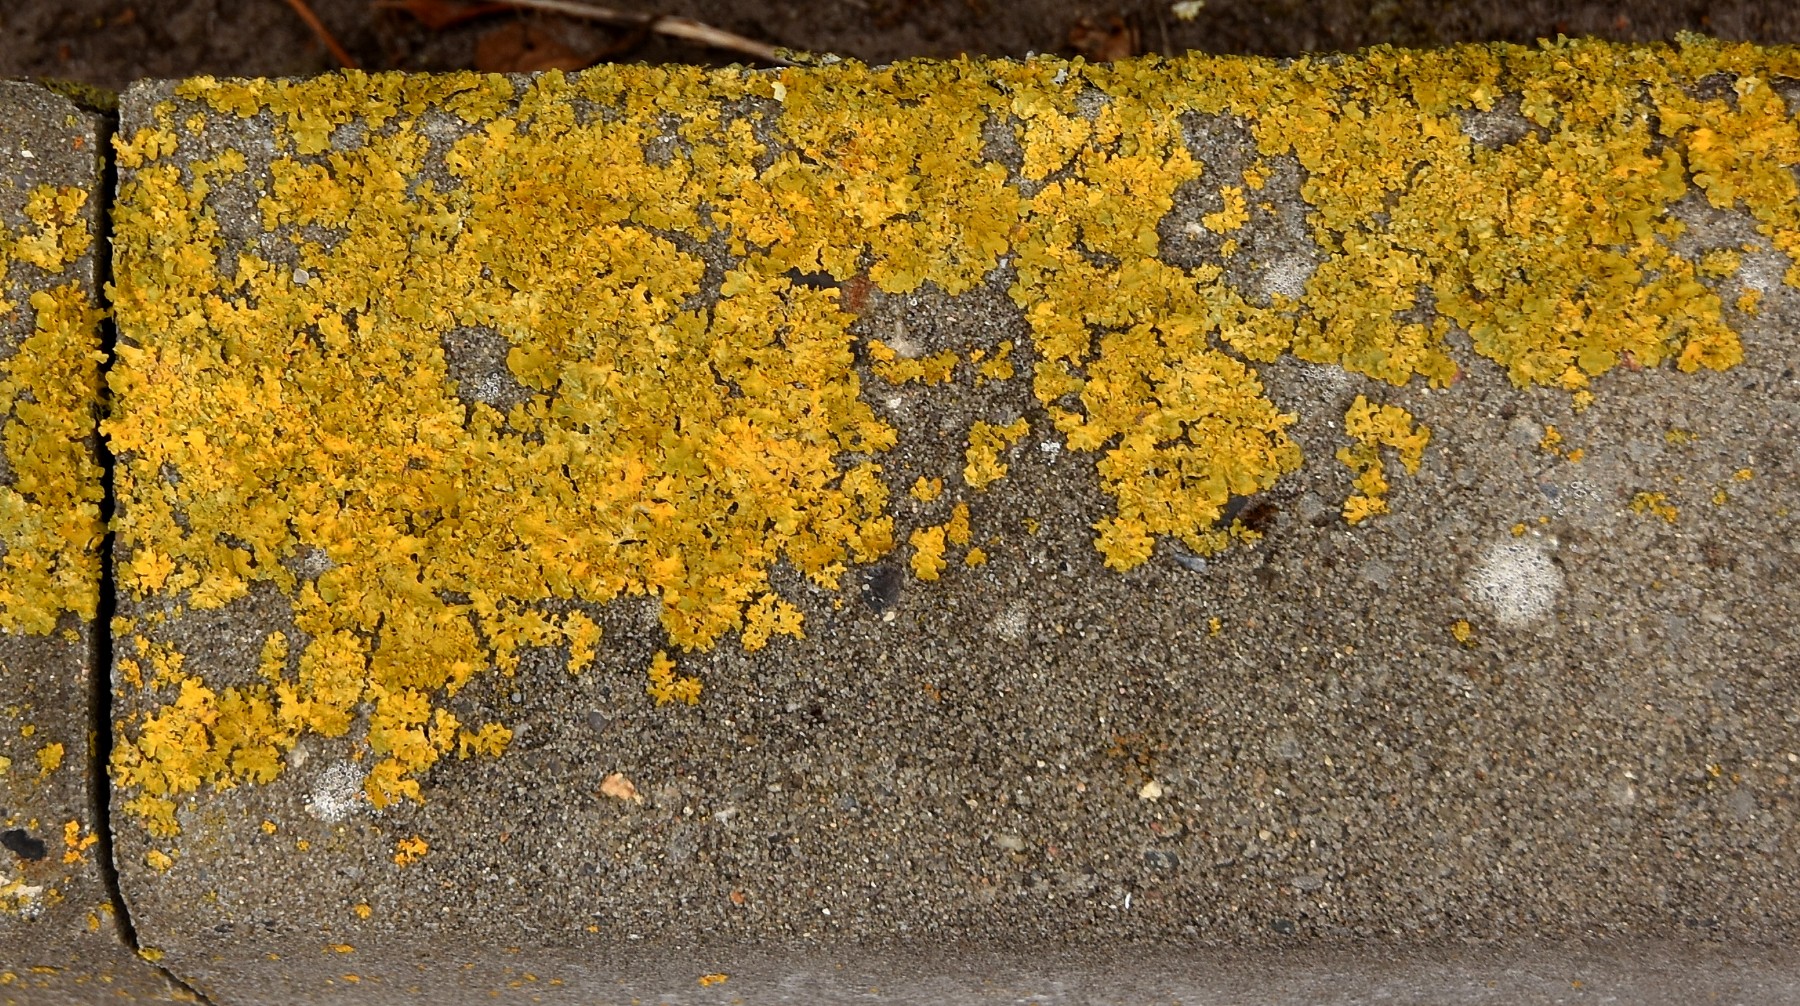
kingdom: Fungi
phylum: Ascomycota
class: Lecanoromycetes
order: Teloschistales
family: Teloschistaceae
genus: Xanthoria
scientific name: Xanthoria parietina
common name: almindelig væggelav
